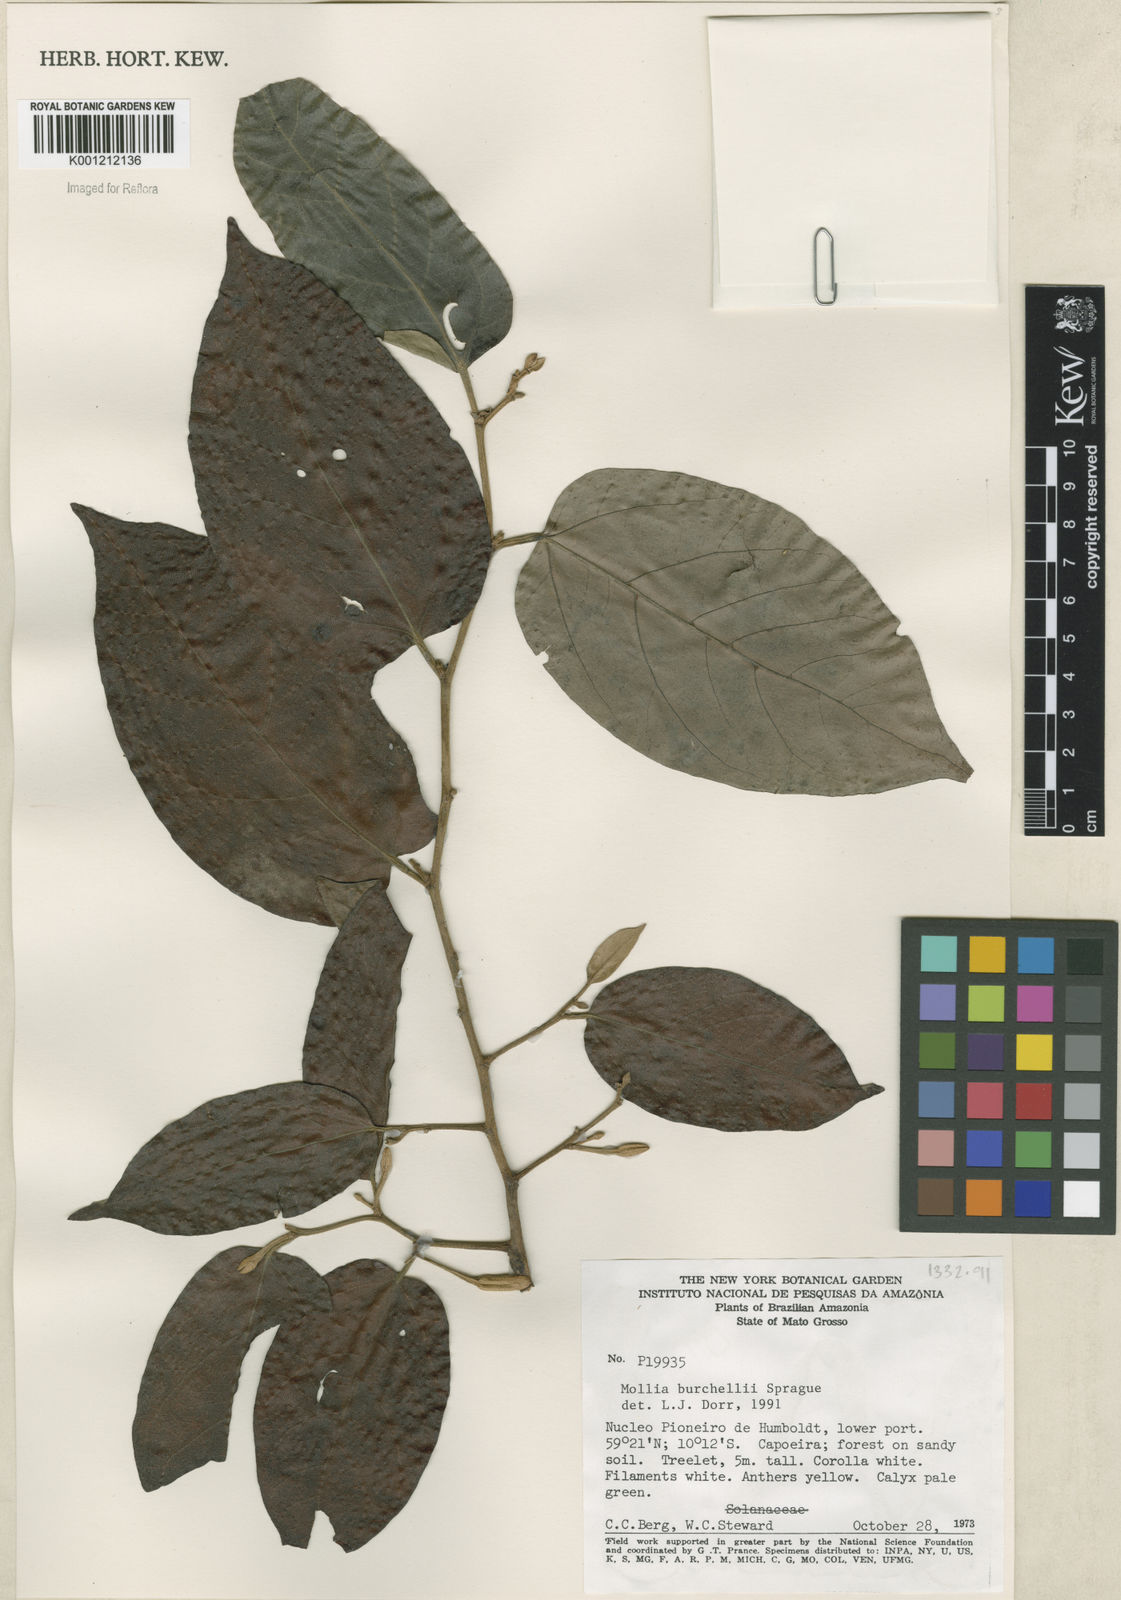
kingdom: Plantae
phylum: Tracheophyta
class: Magnoliopsida
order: Malvales
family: Malvaceae
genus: Mollia
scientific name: Mollia burchellii
